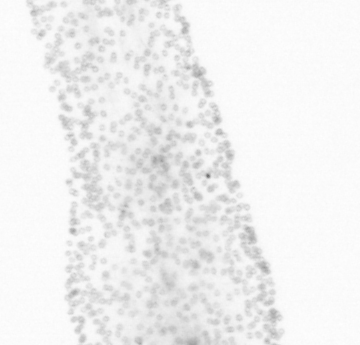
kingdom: Chromista
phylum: Ochrophyta
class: Bacillariophyceae
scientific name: Bacillariophyceae
